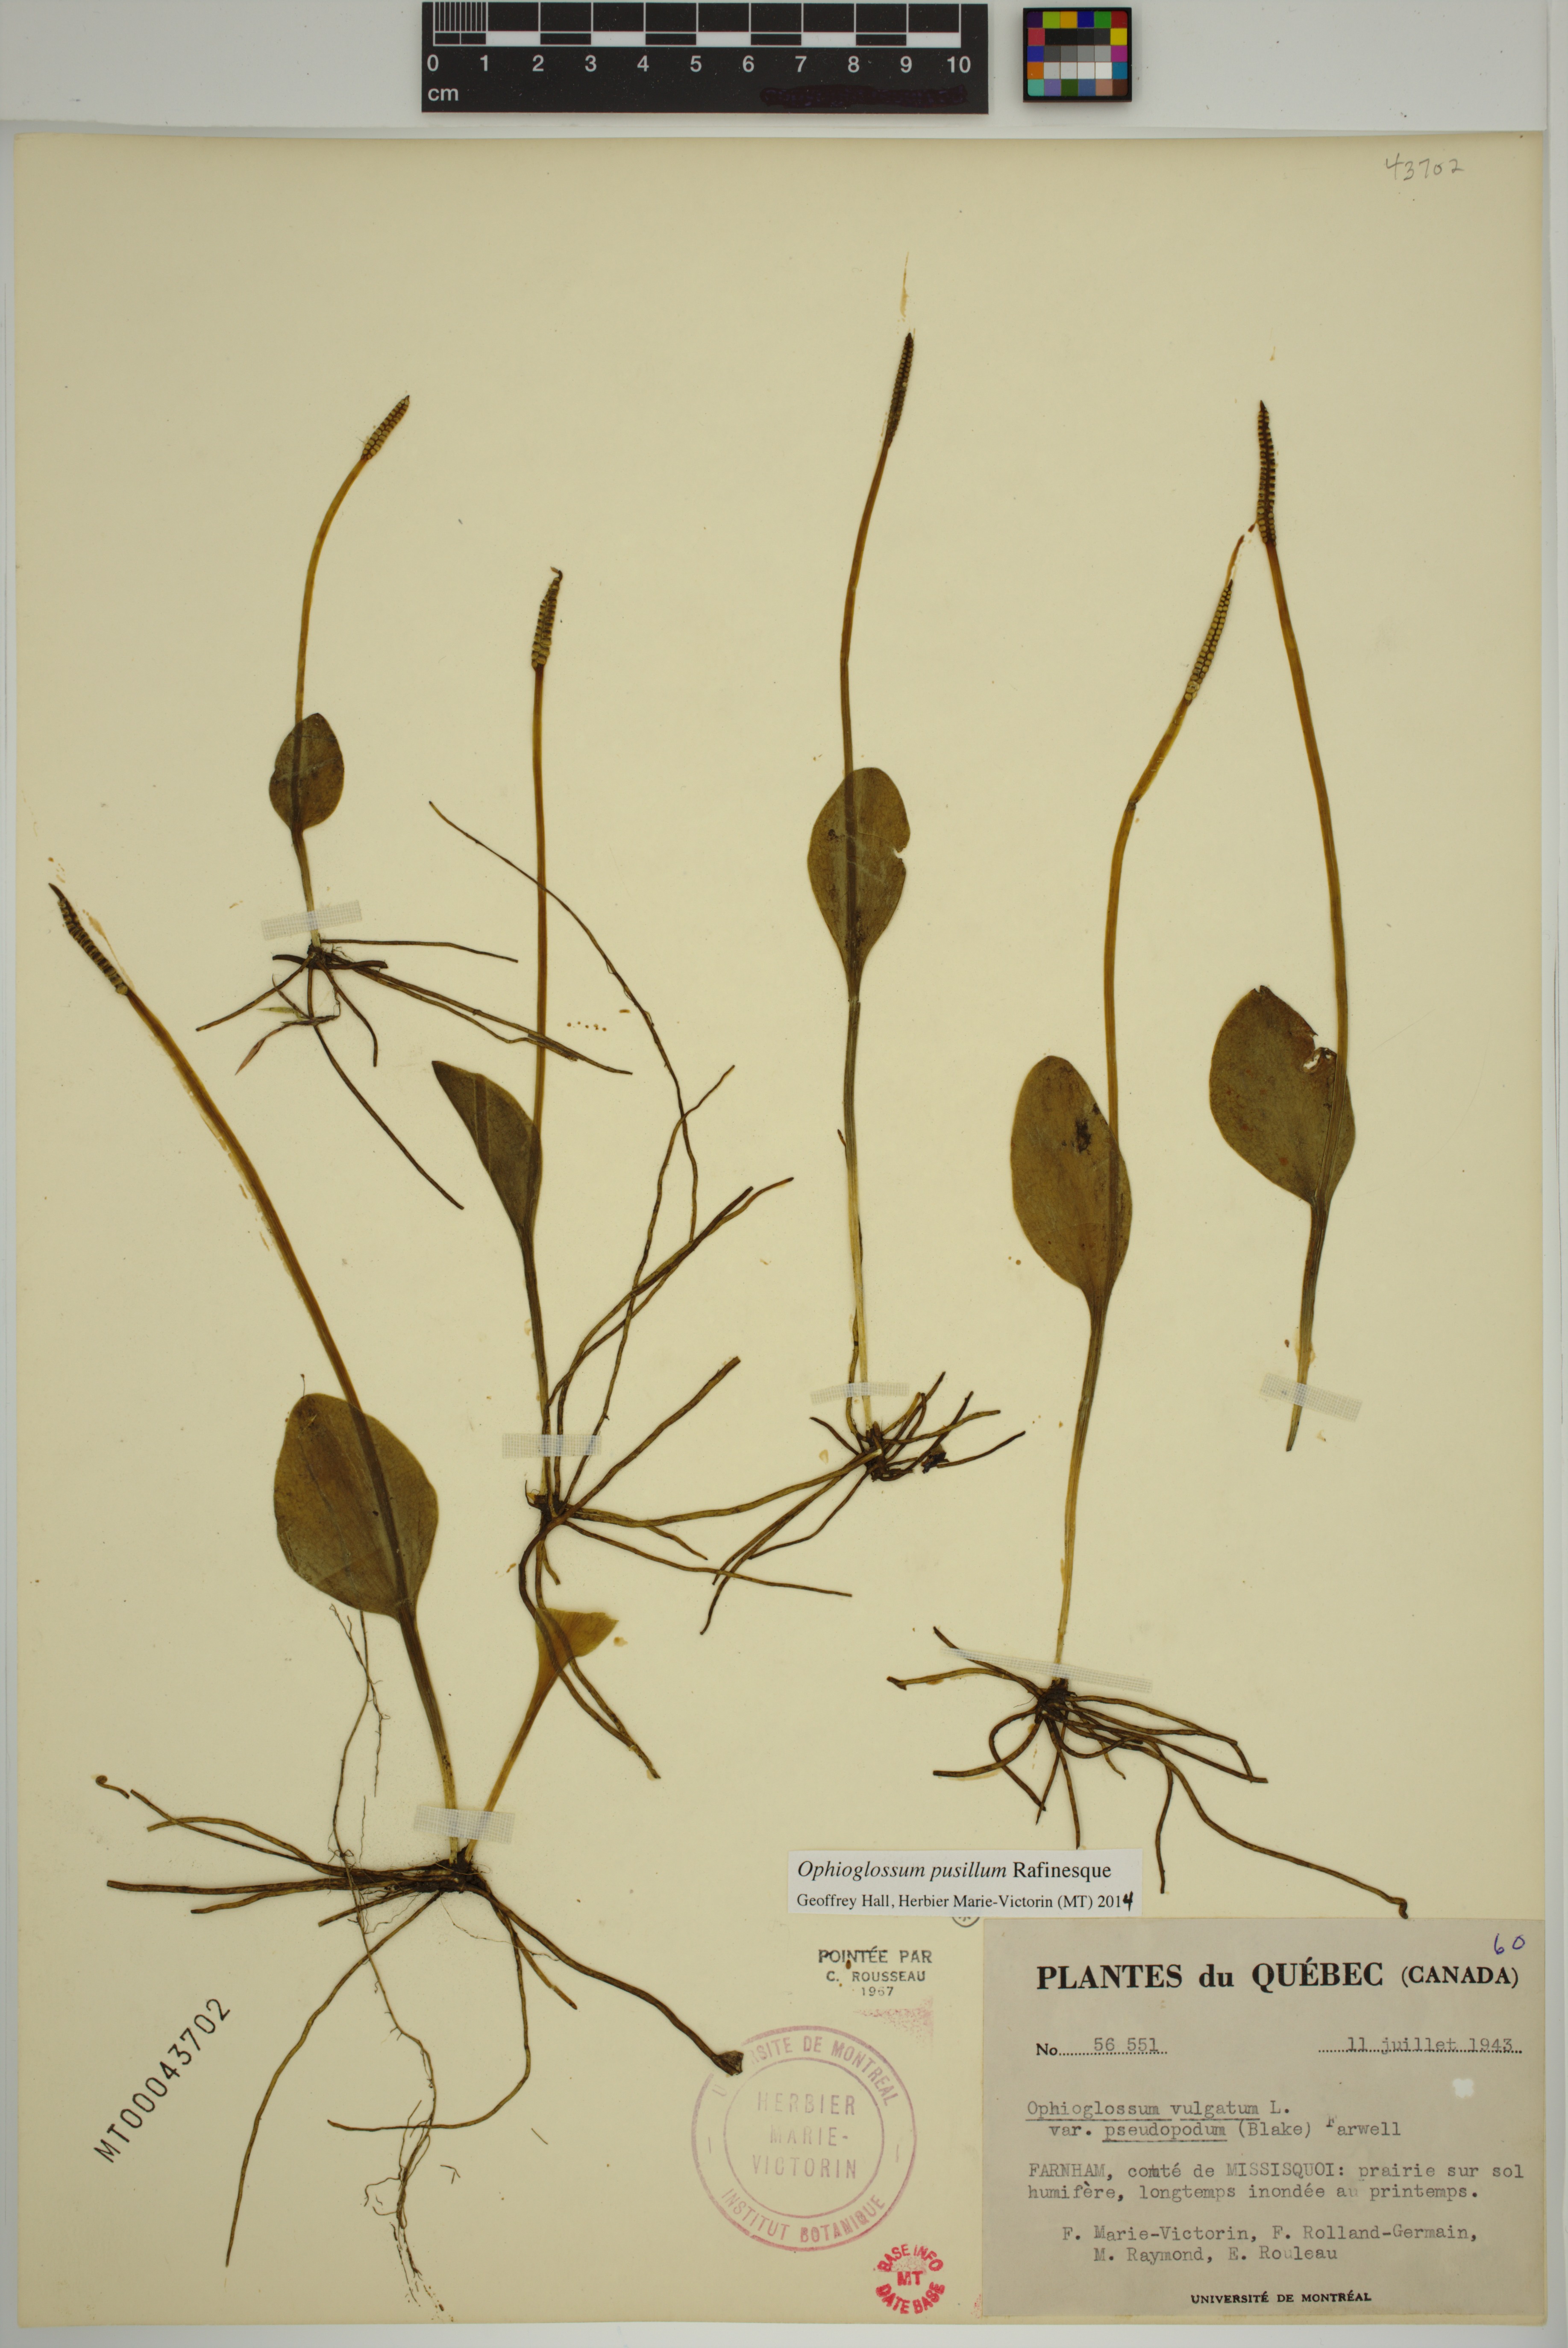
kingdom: Plantae
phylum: Tracheophyta
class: Polypodiopsida
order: Ophioglossales
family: Ophioglossaceae
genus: Ophioglossum
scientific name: Ophioglossum pusillum
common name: Northern adder's-tongue
